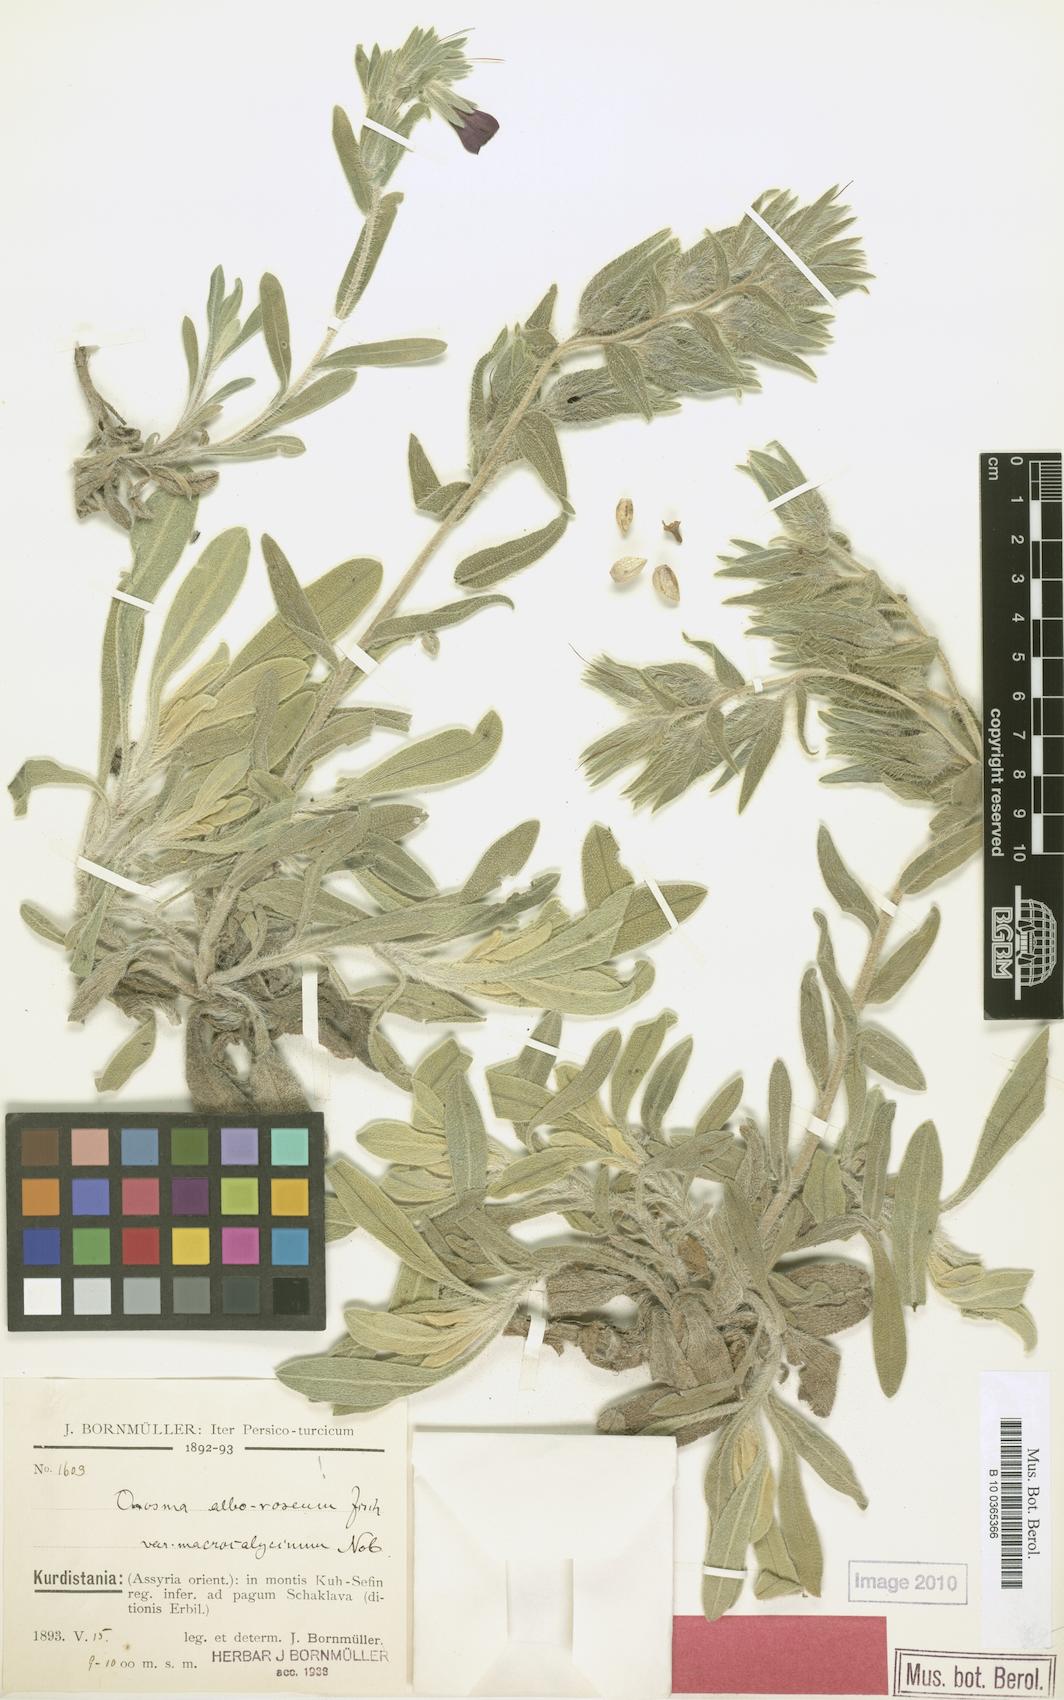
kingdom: Plantae
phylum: Tracheophyta
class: Magnoliopsida
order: Boraginales
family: Boraginaceae
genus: Onosma
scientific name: Onosma cinerea
